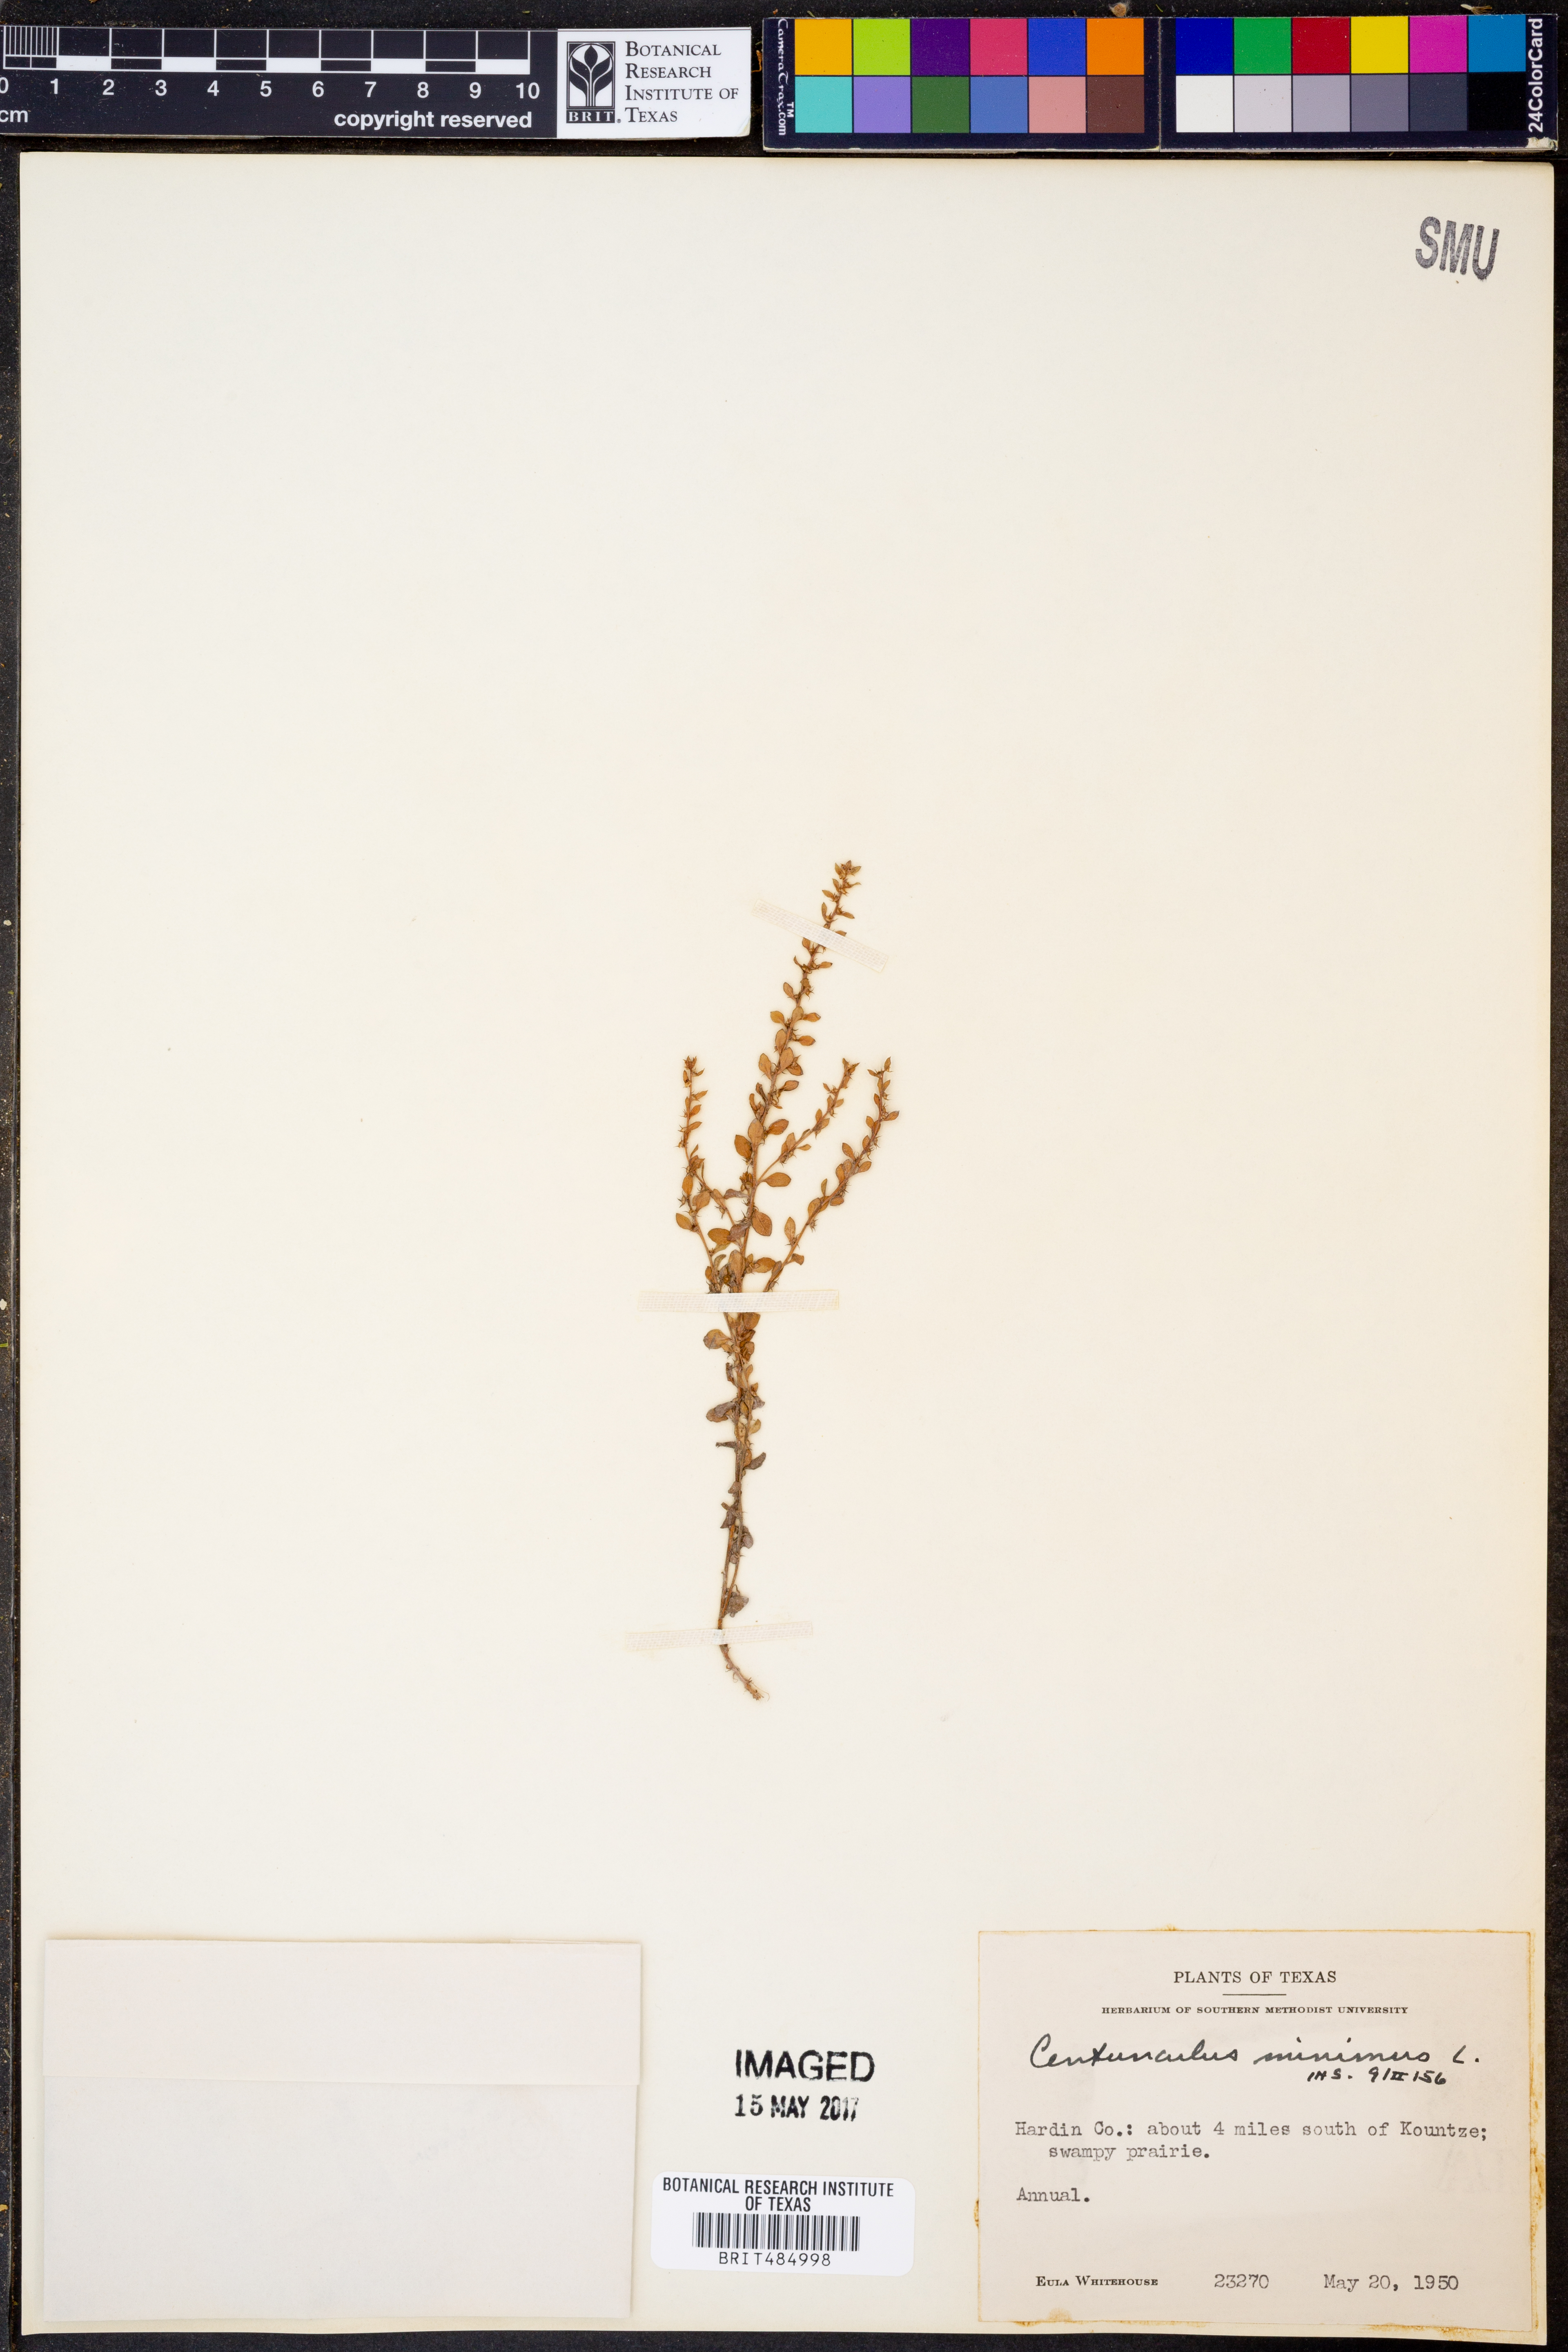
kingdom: Plantae
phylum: Tracheophyta
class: Magnoliopsida
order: Ericales
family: Primulaceae
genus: Lysimachia
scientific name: Lysimachia minima
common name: Chaffweed
